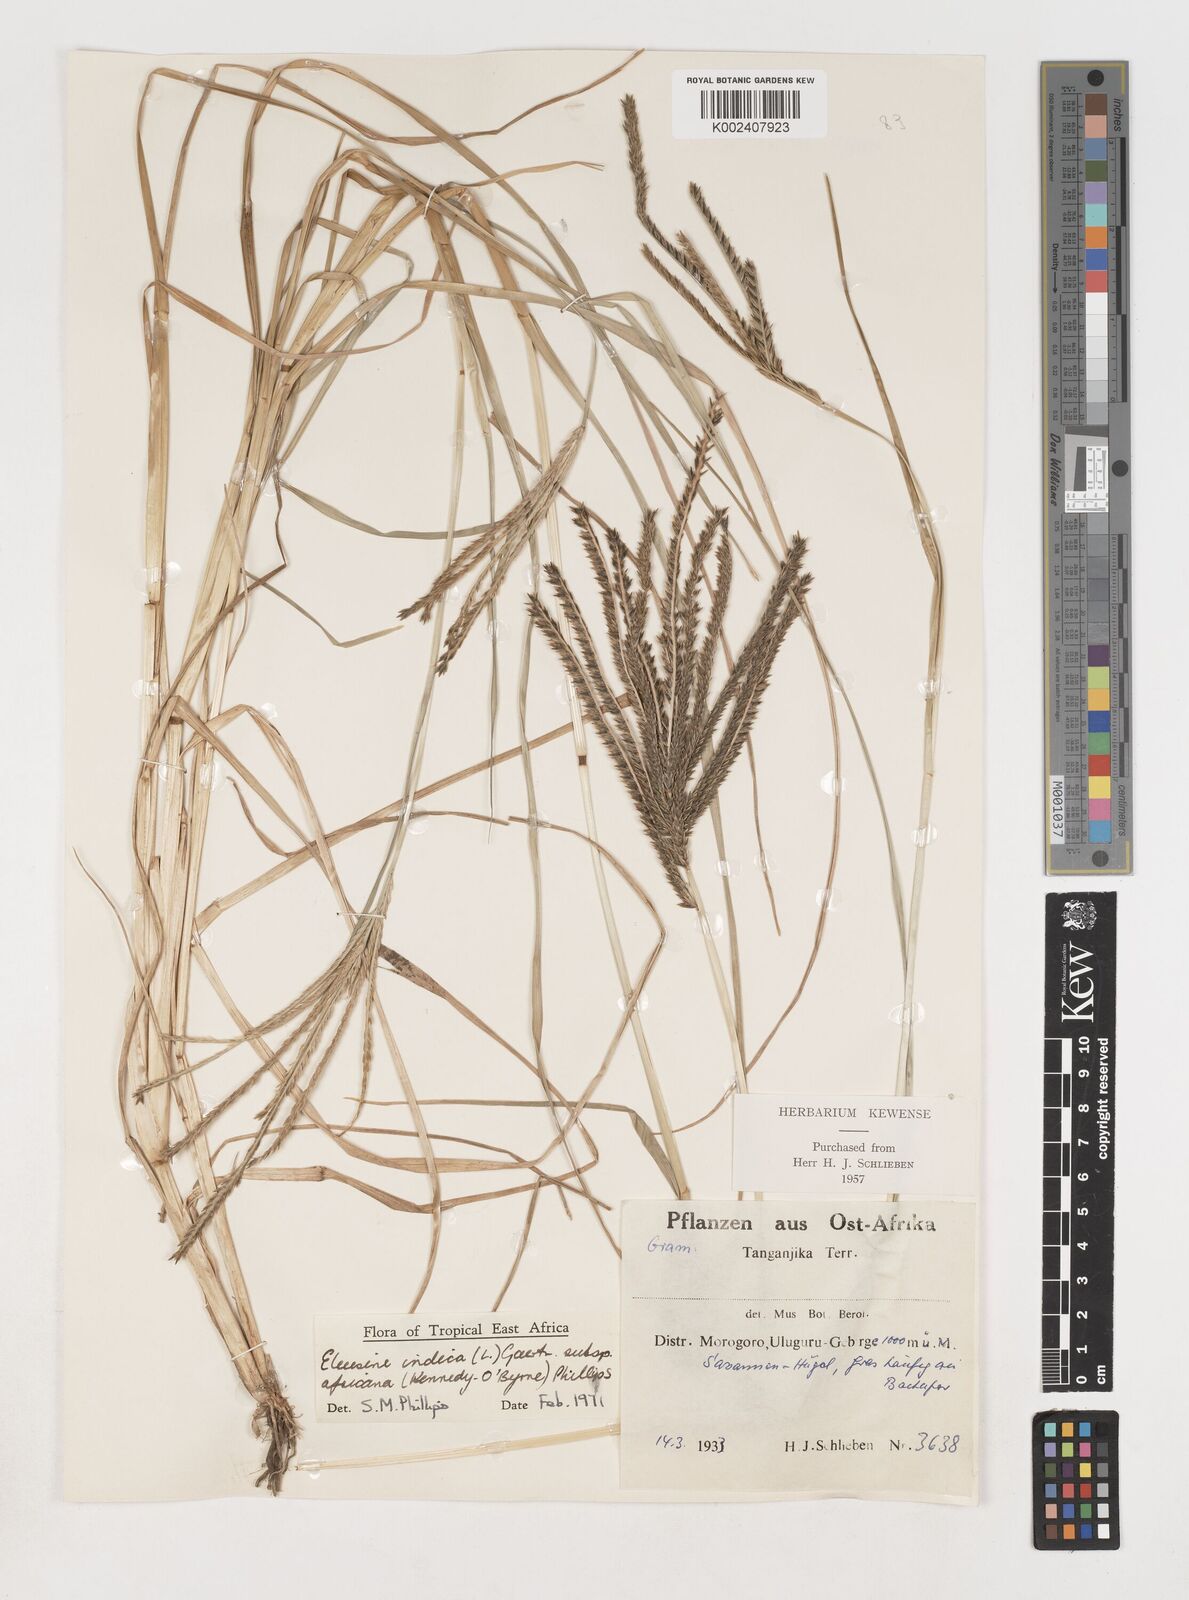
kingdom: Plantae
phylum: Tracheophyta
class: Liliopsida
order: Poales
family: Poaceae
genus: Eleusine
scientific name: Eleusine africana
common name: Wild african finger millet
